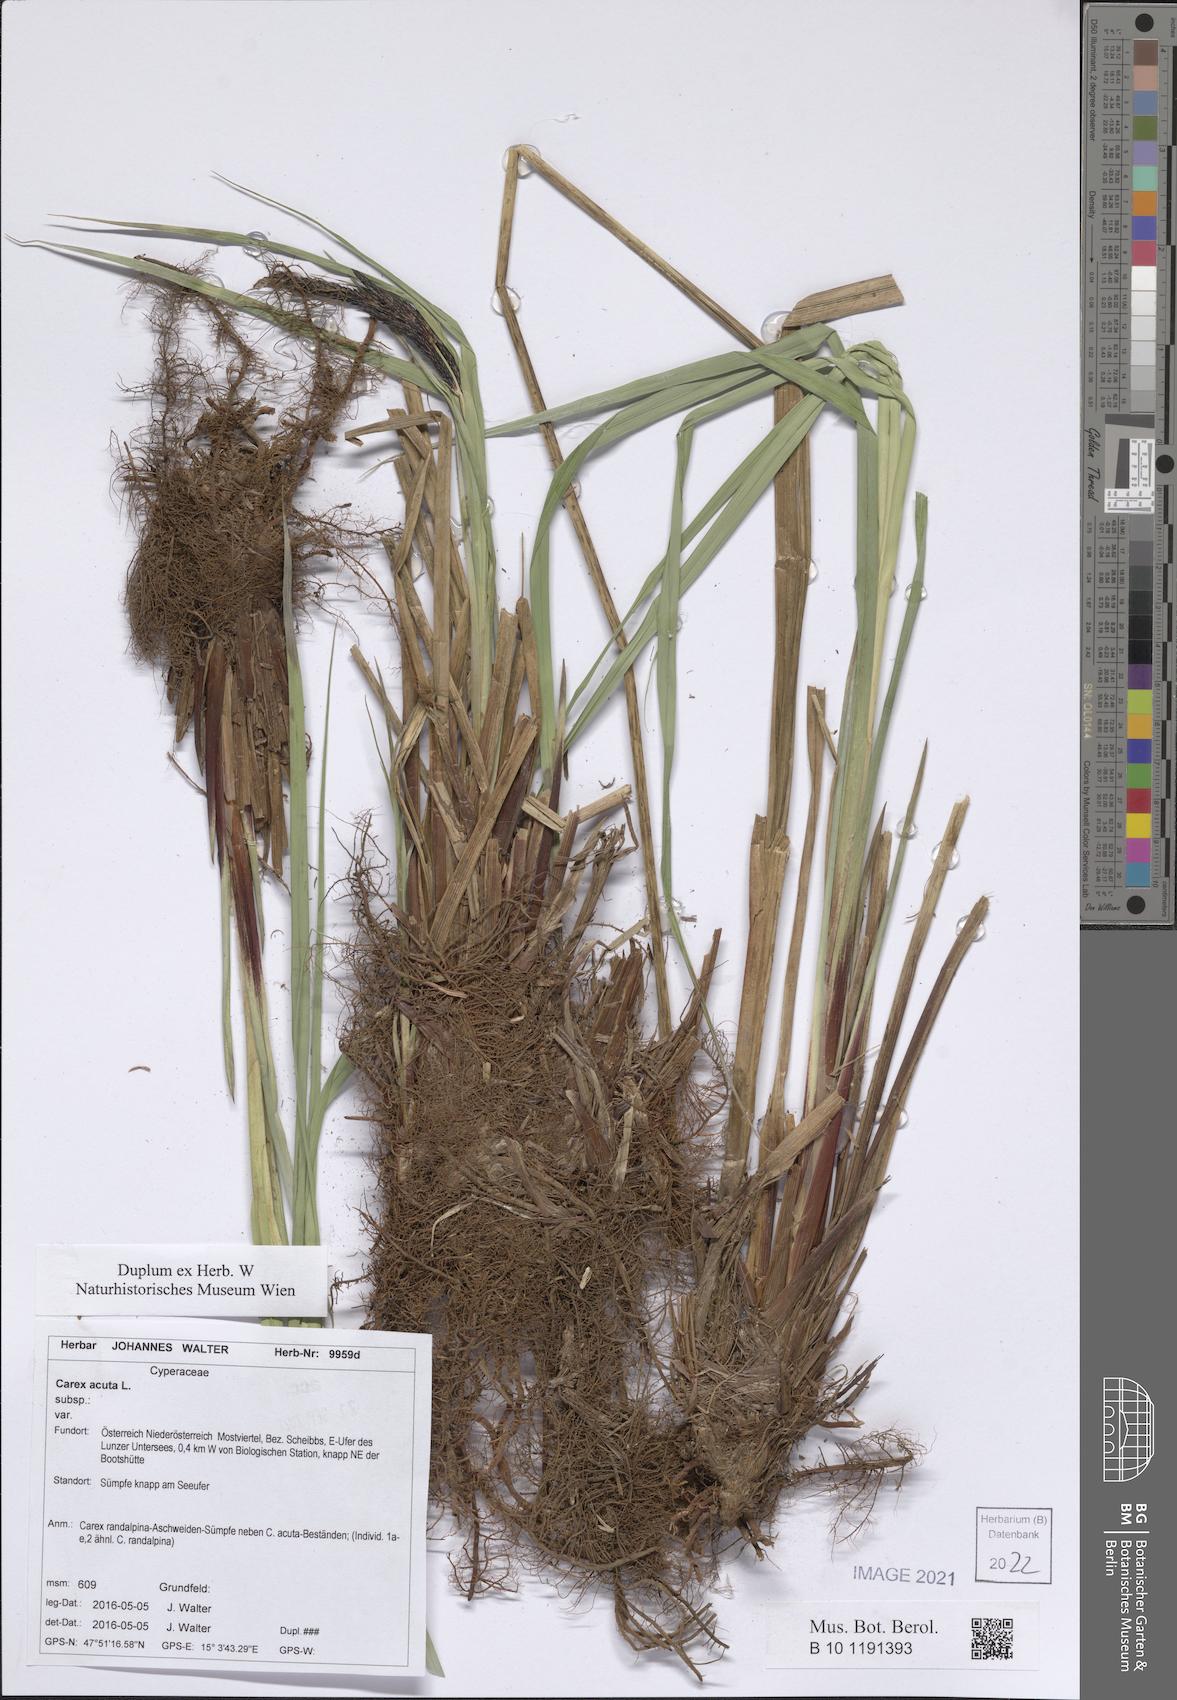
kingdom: Plantae
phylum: Tracheophyta
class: Liliopsida
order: Poales
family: Cyperaceae
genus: Carex
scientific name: Carex acuta
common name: Slender tufted-sedge
